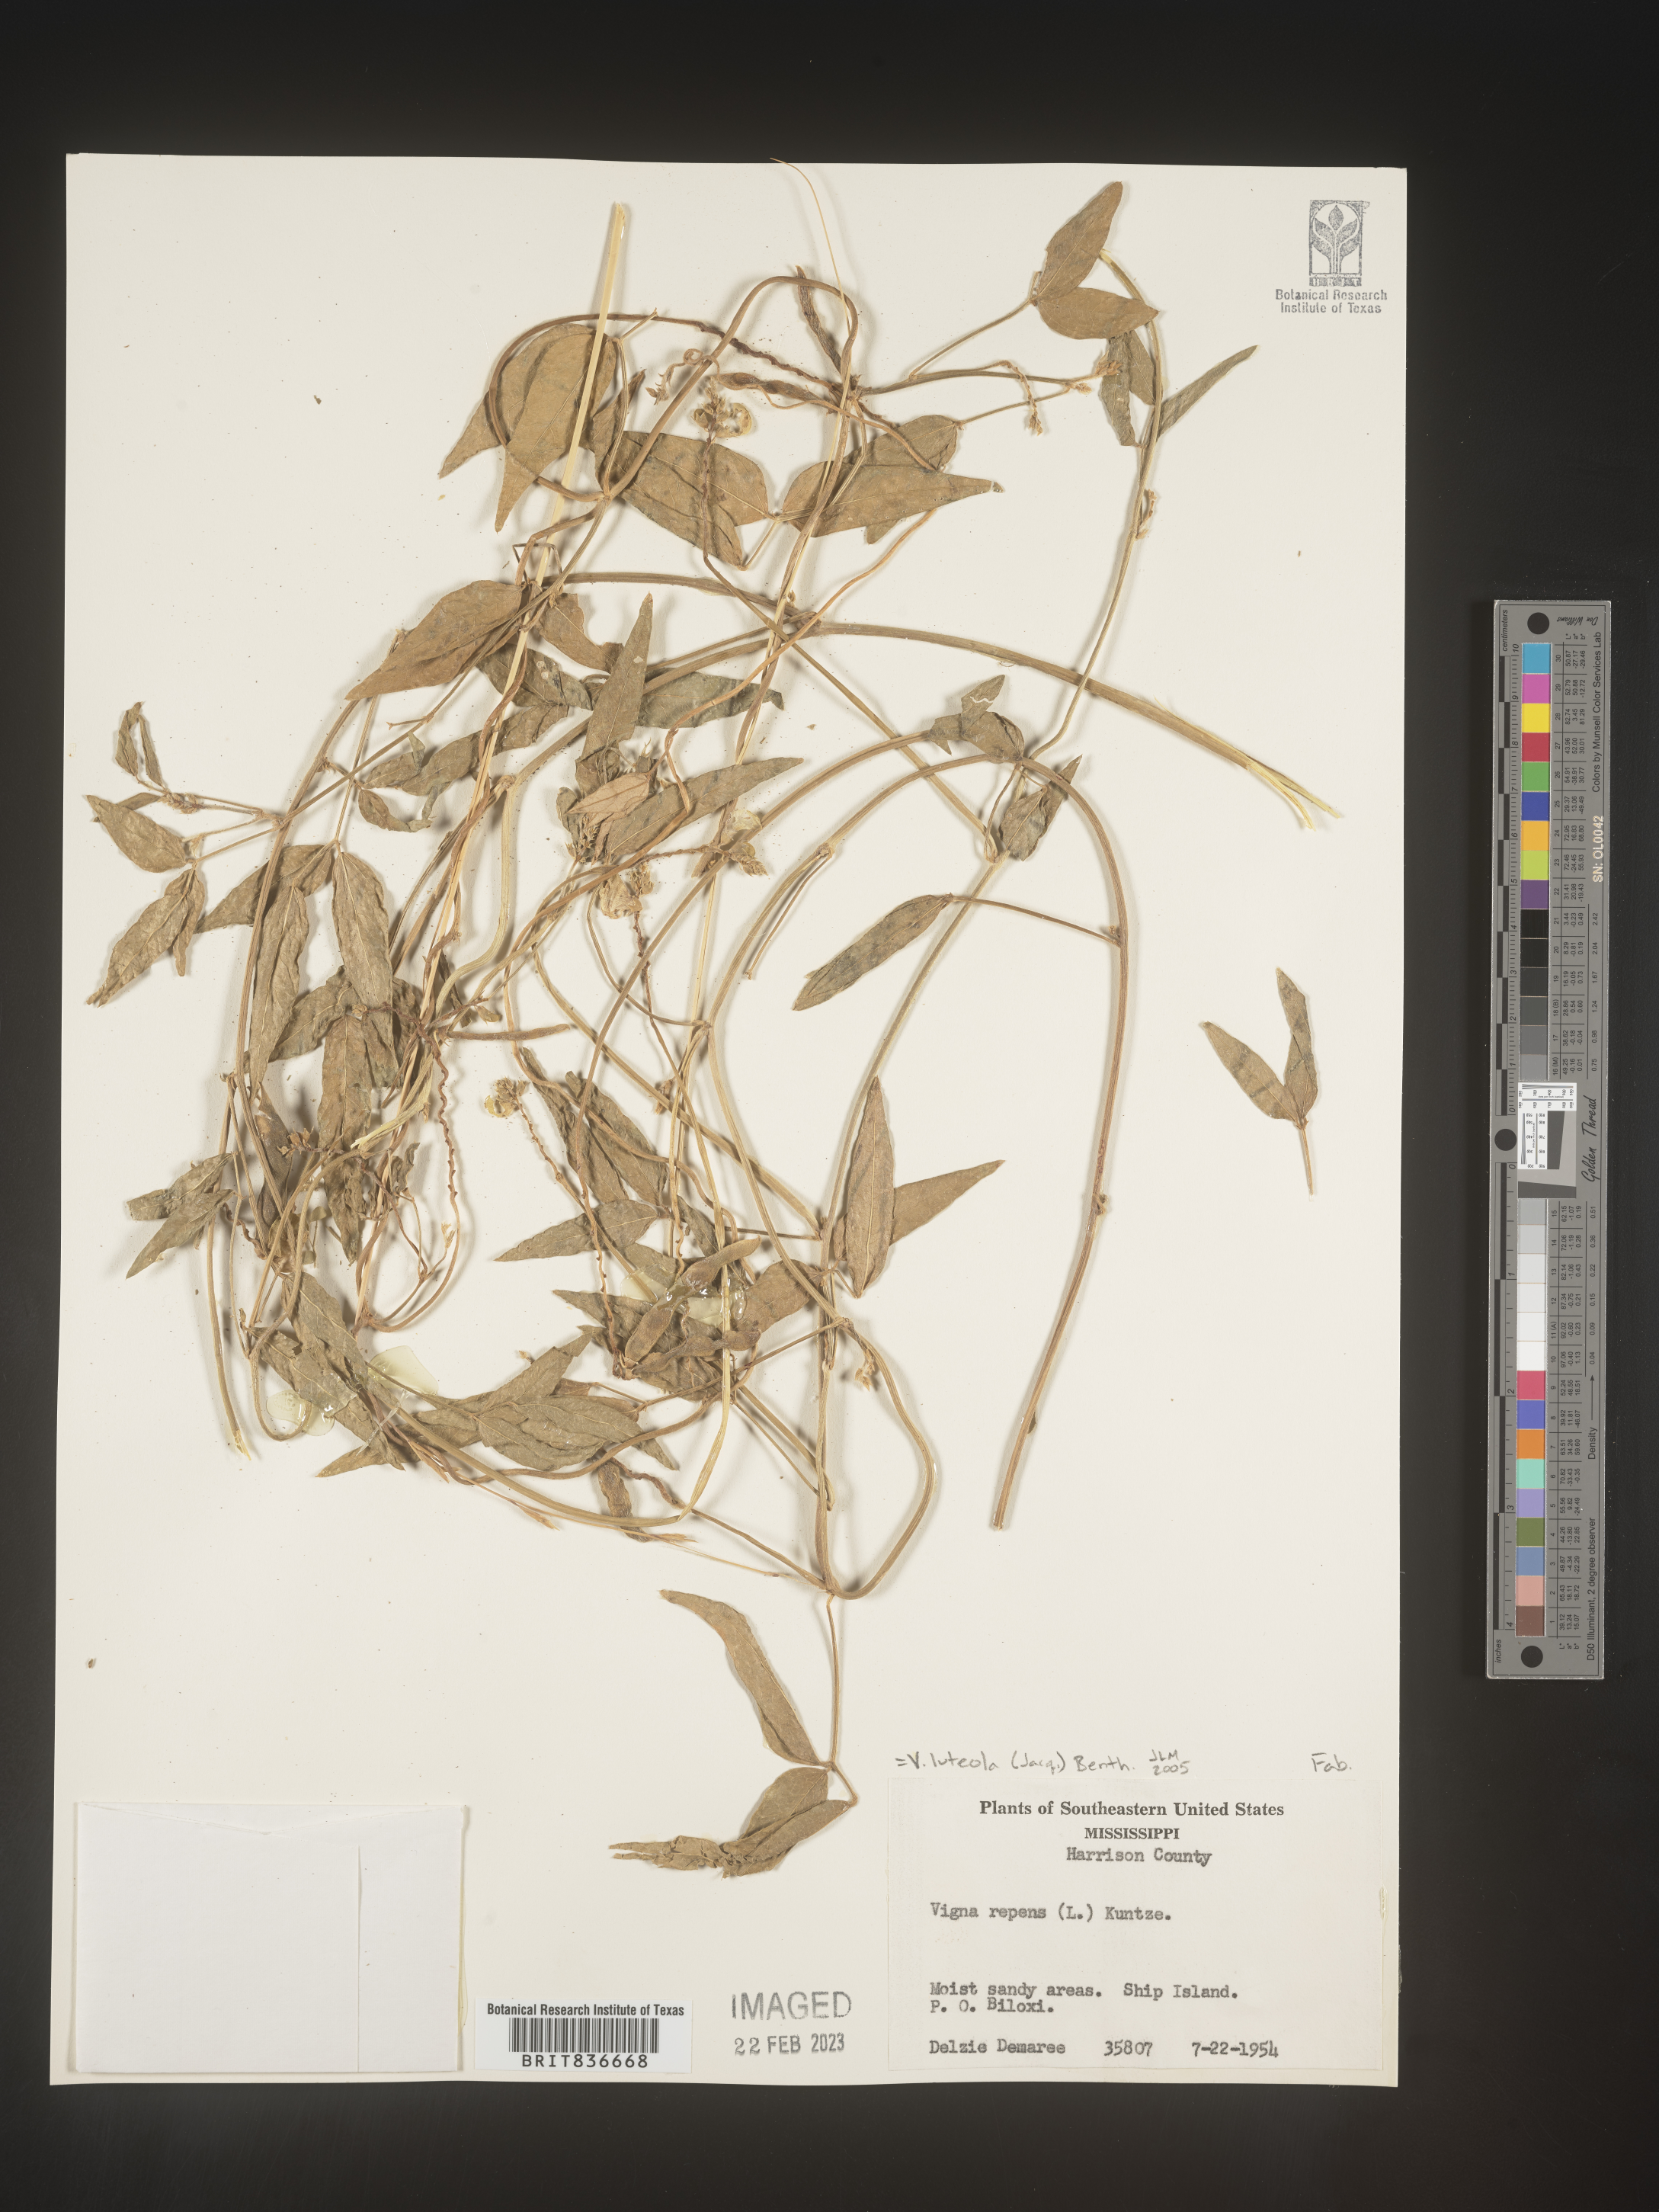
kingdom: Plantae
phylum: Tracheophyta
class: Magnoliopsida
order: Fabales
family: Fabaceae
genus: Vigna
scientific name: Vigna luteola
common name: Hairypod cowpea
